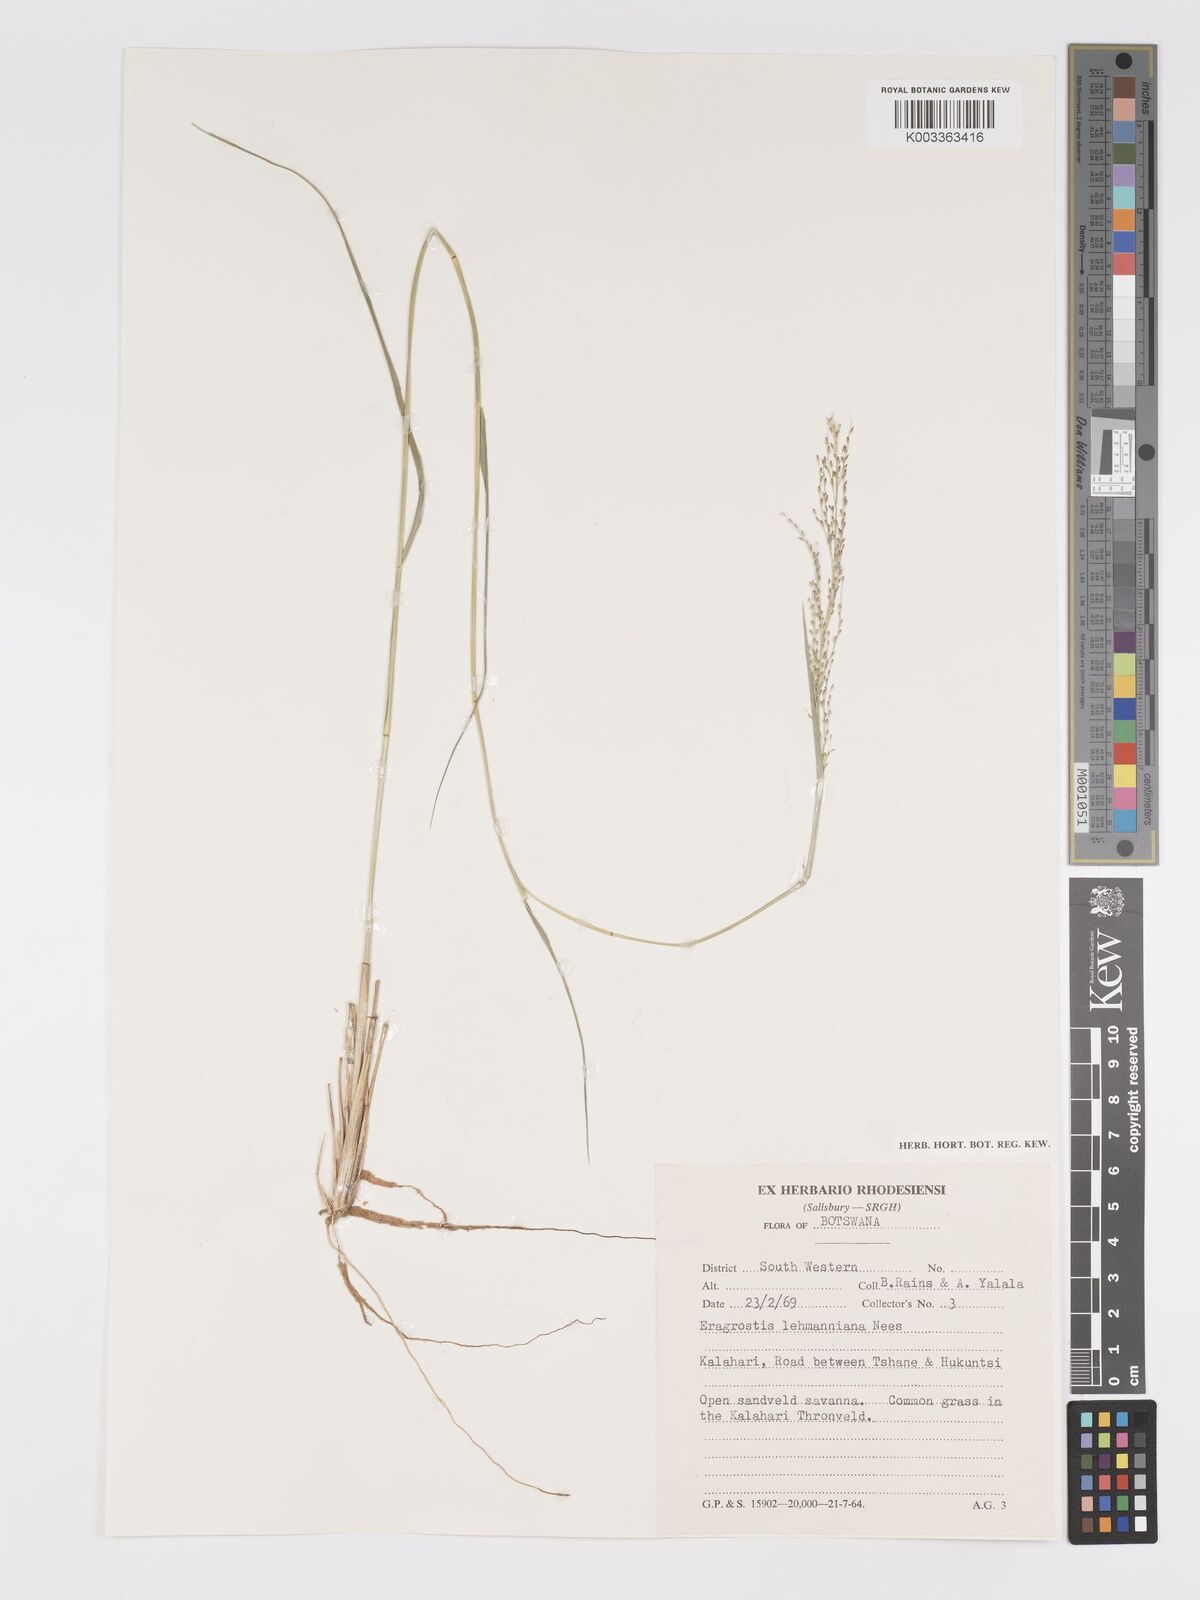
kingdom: Plantae
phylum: Tracheophyta
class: Liliopsida
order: Poales
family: Poaceae
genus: Eragrostis
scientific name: Eragrostis lehmanniana
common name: Lehmann lovegrass
